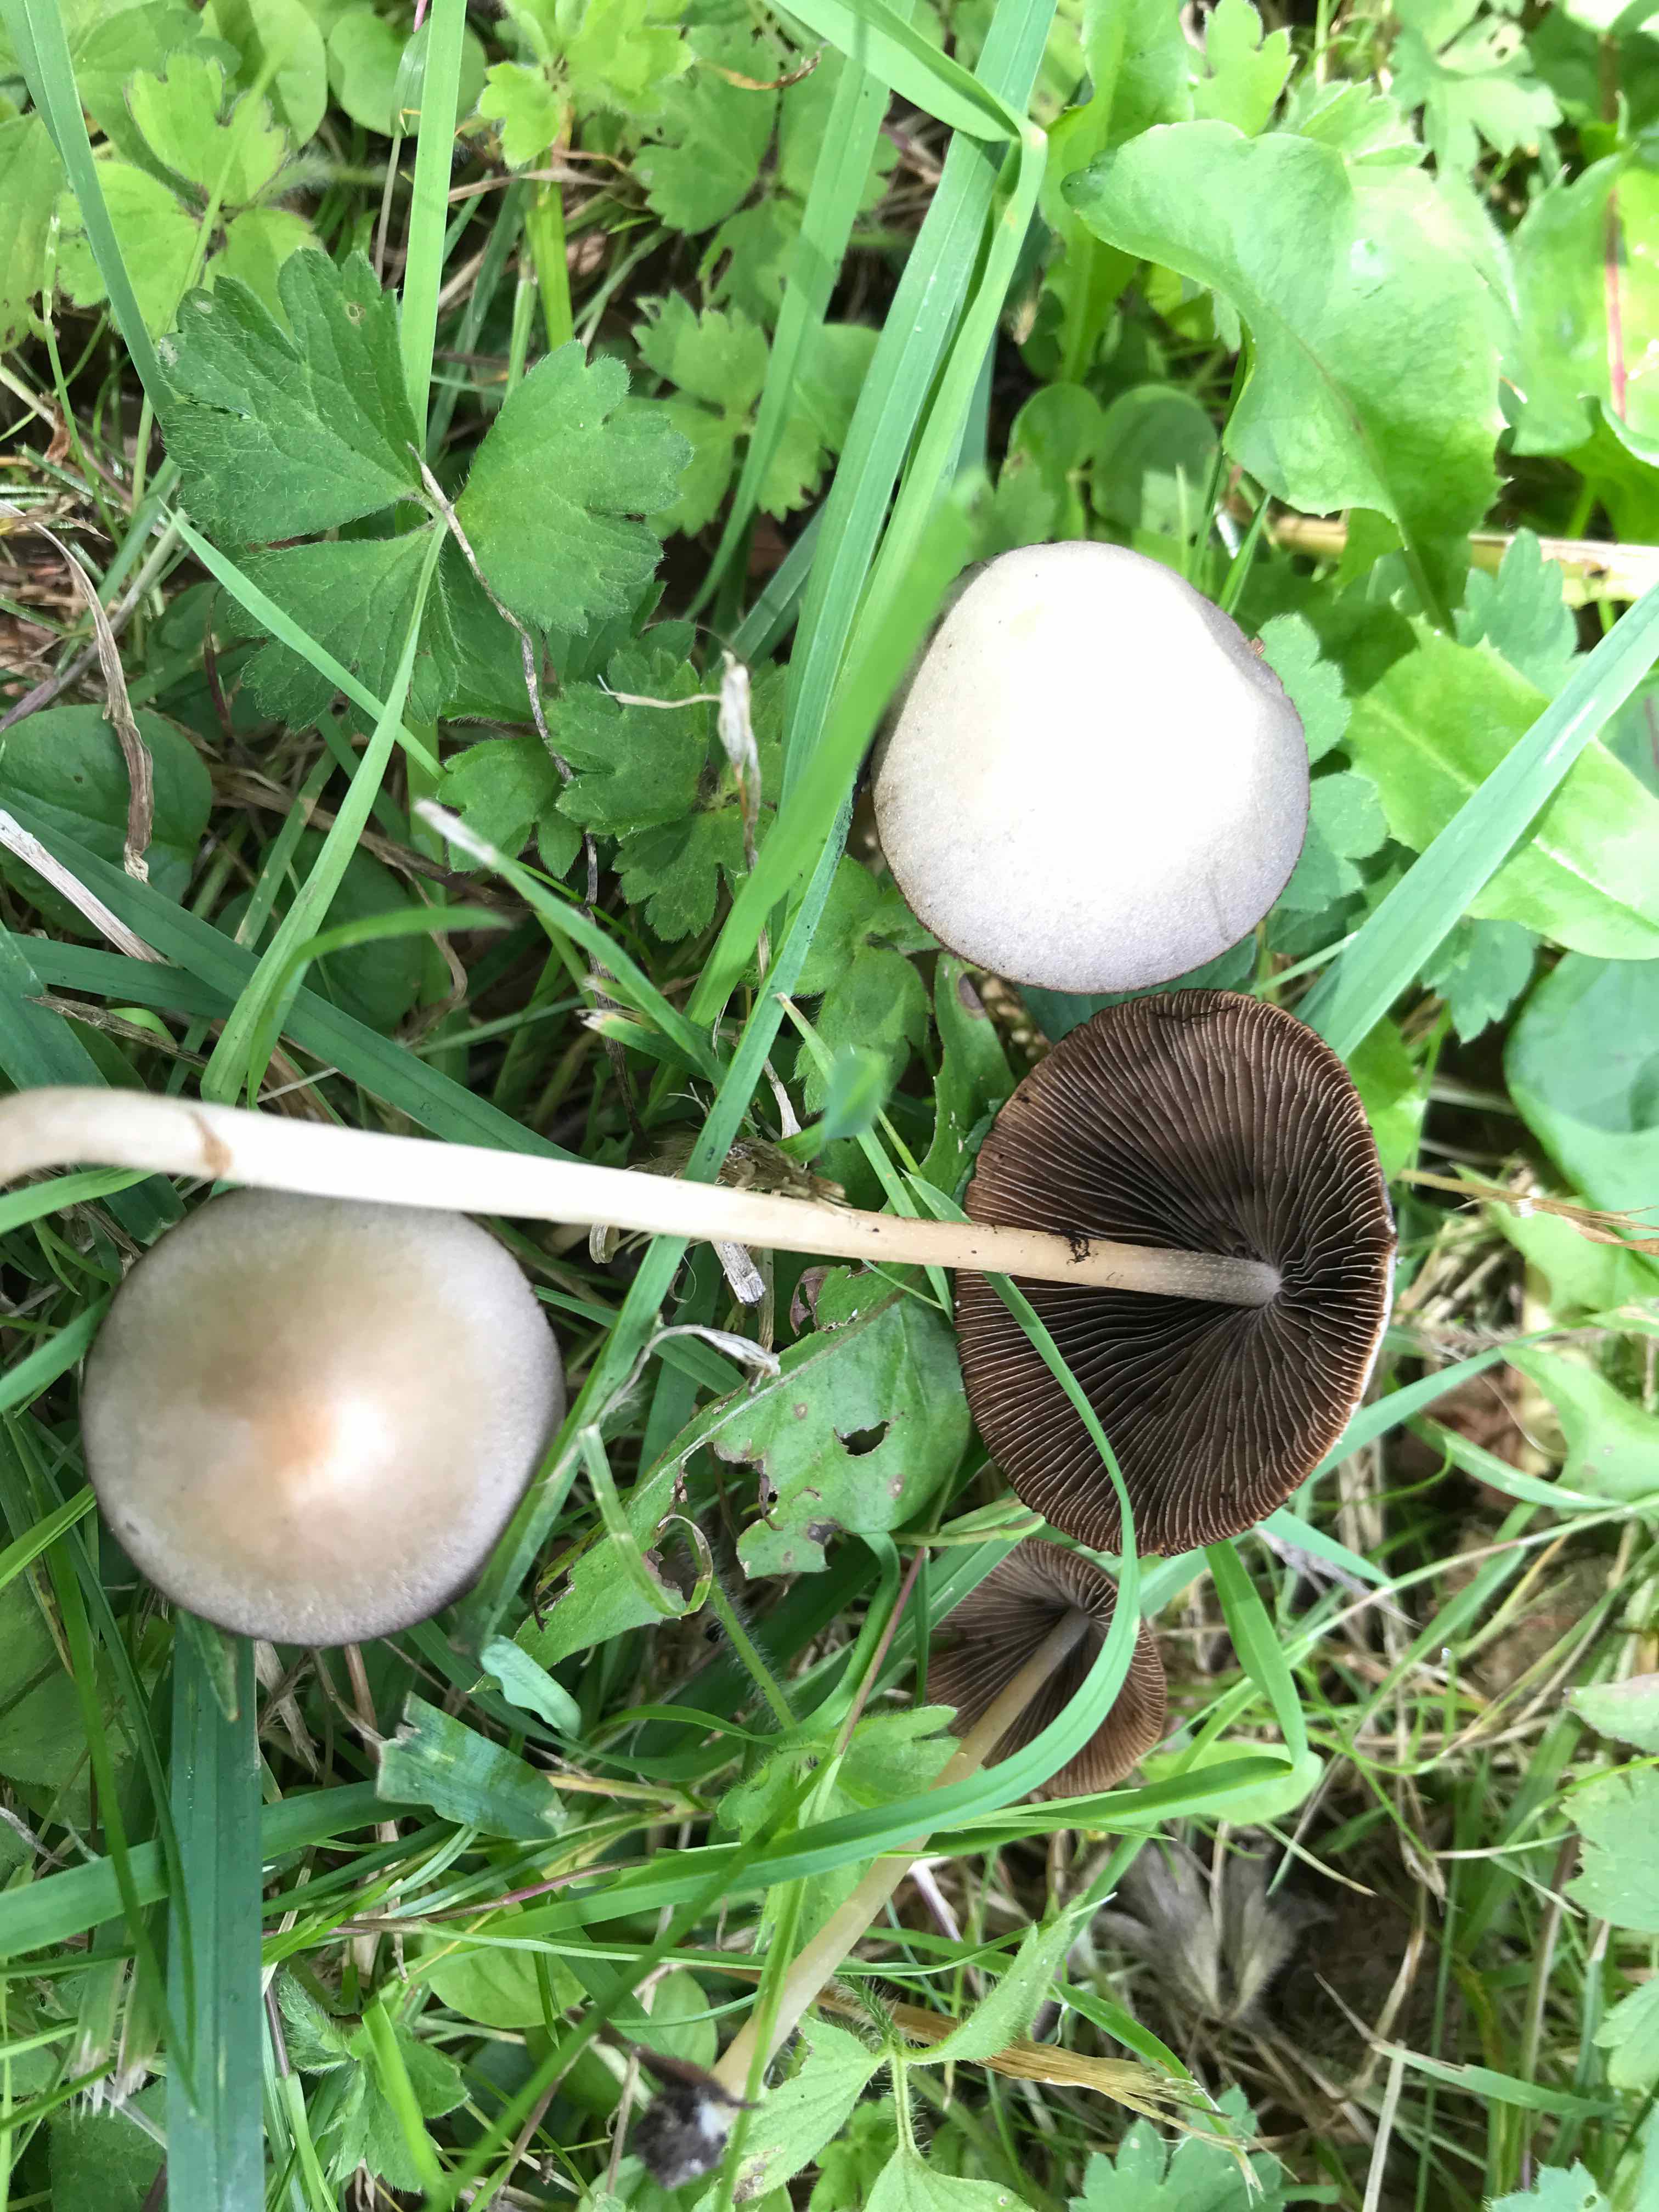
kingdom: Fungi
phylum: Basidiomycota
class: Agaricomycetes
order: Agaricales
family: Bolbitiaceae
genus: Panaeolina
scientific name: Panaeolina foenisecii
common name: høslætsvamp
